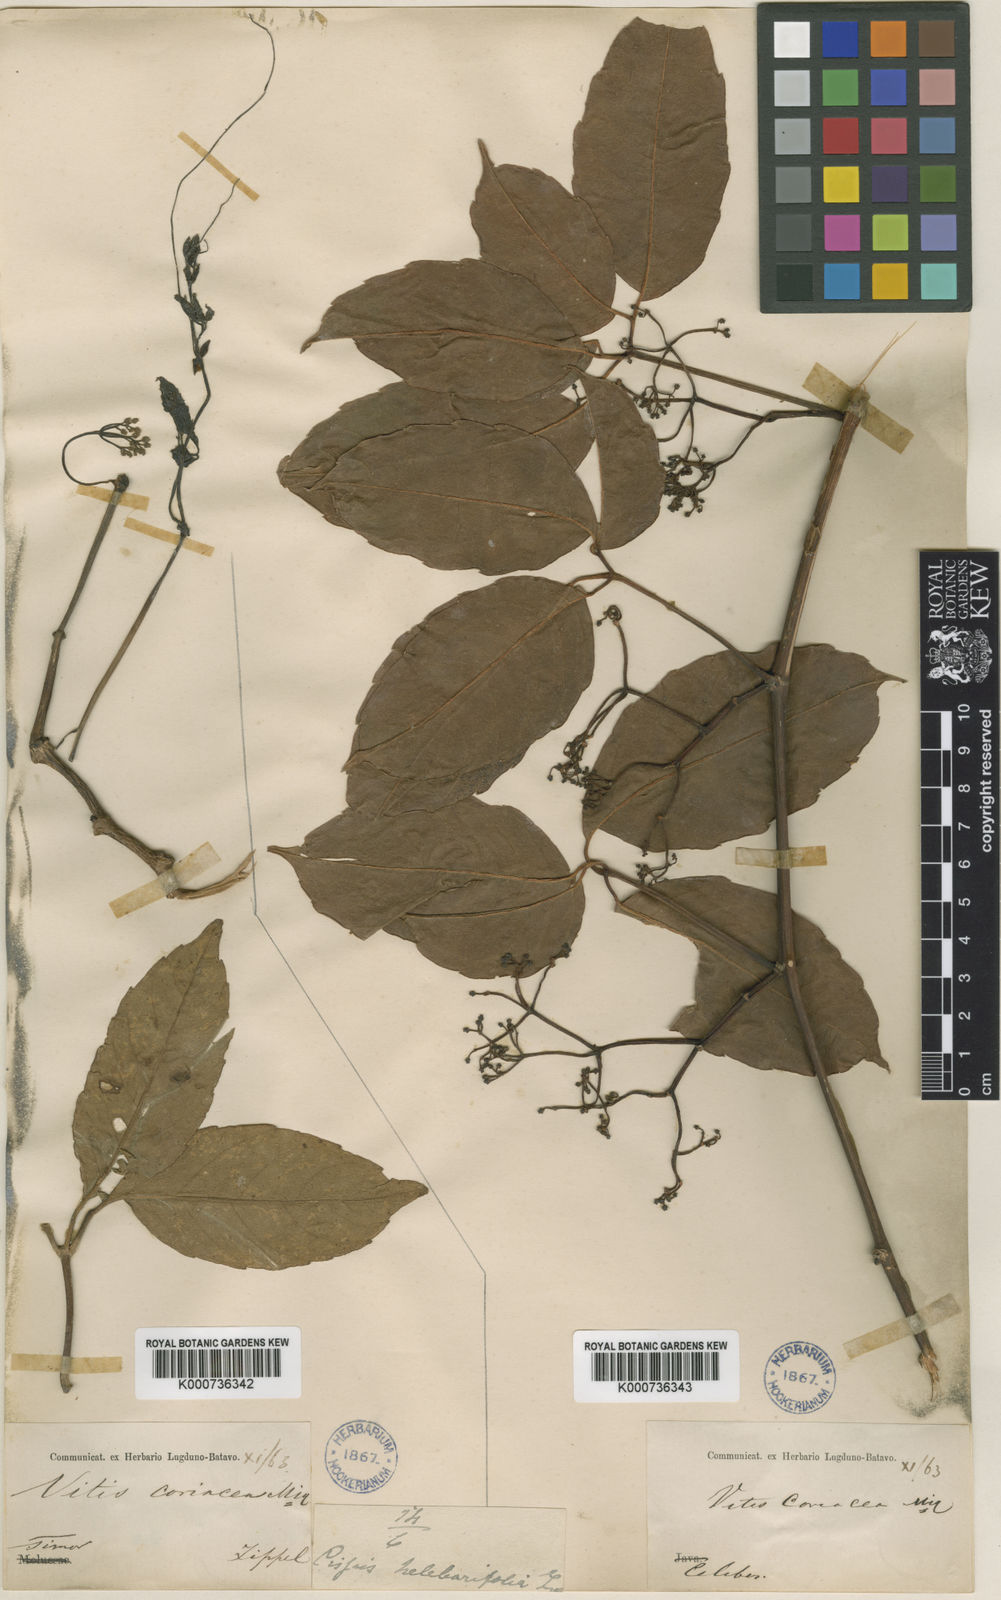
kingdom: Plantae
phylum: Tracheophyta
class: Magnoliopsida
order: Vitales
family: Vitaceae
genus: Tetrastigma
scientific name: Tetrastigma
